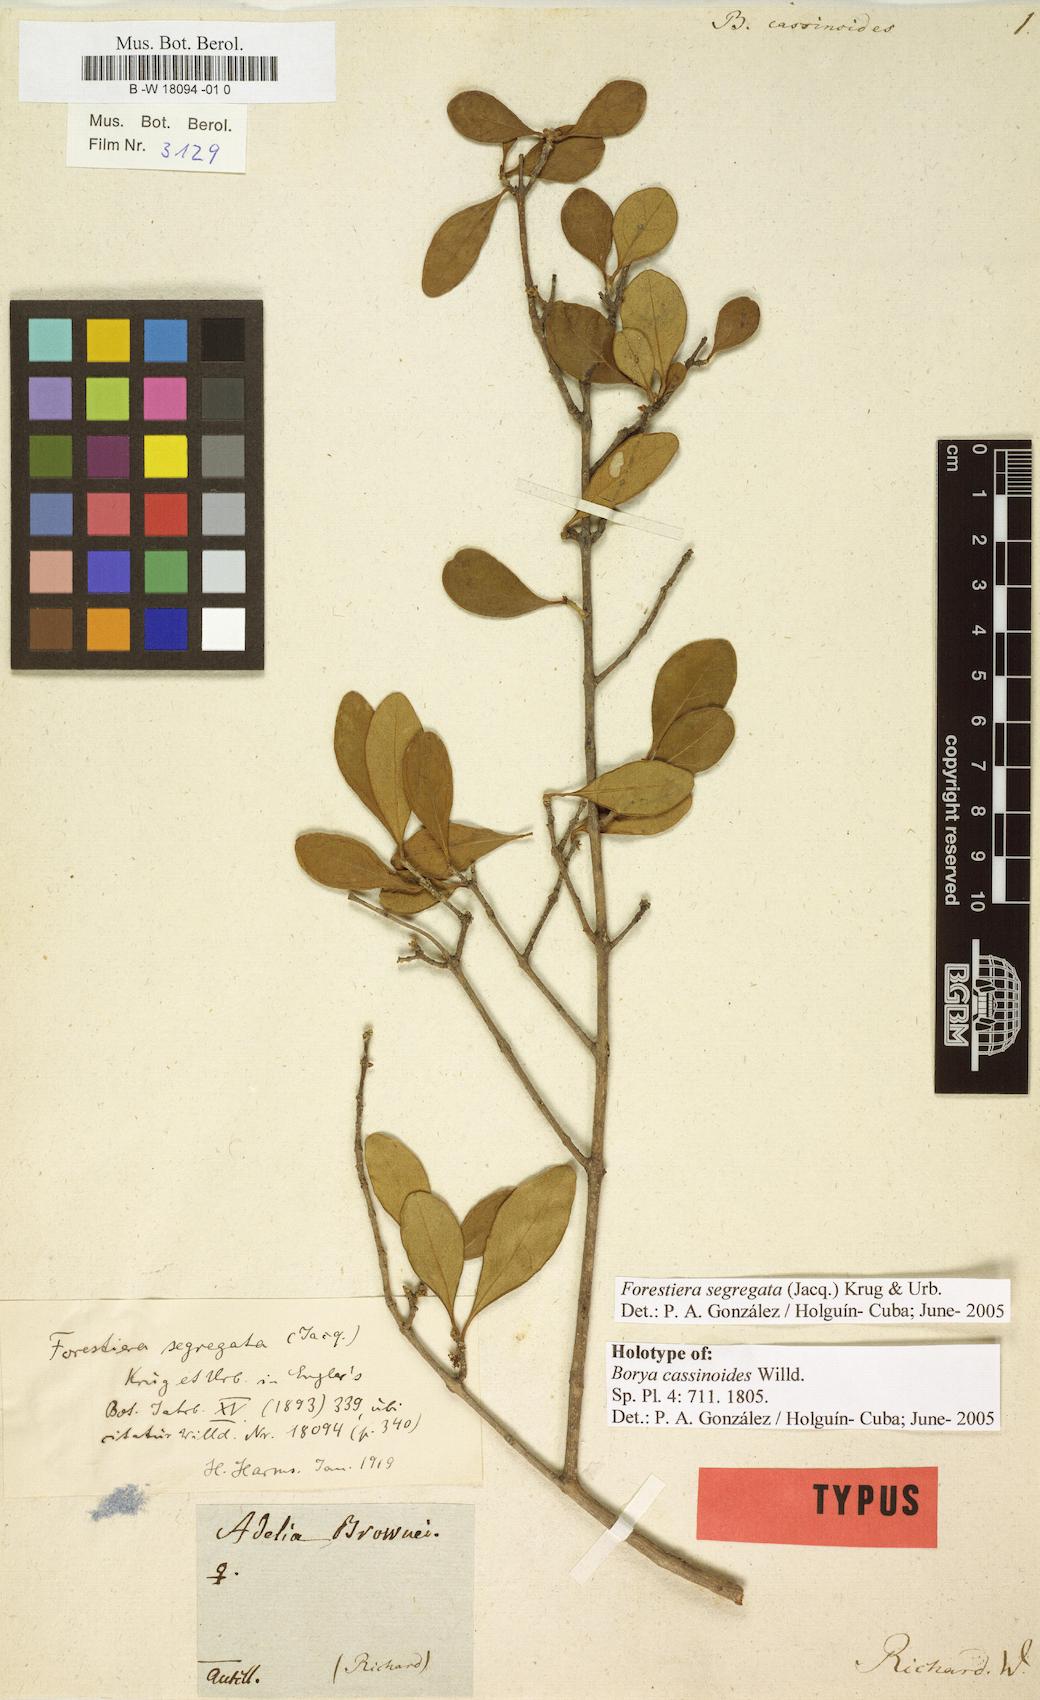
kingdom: Plantae
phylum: Tracheophyta
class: Magnoliopsida
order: Lamiales
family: Oleaceae
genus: Forestiera
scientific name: Forestiera segregata
